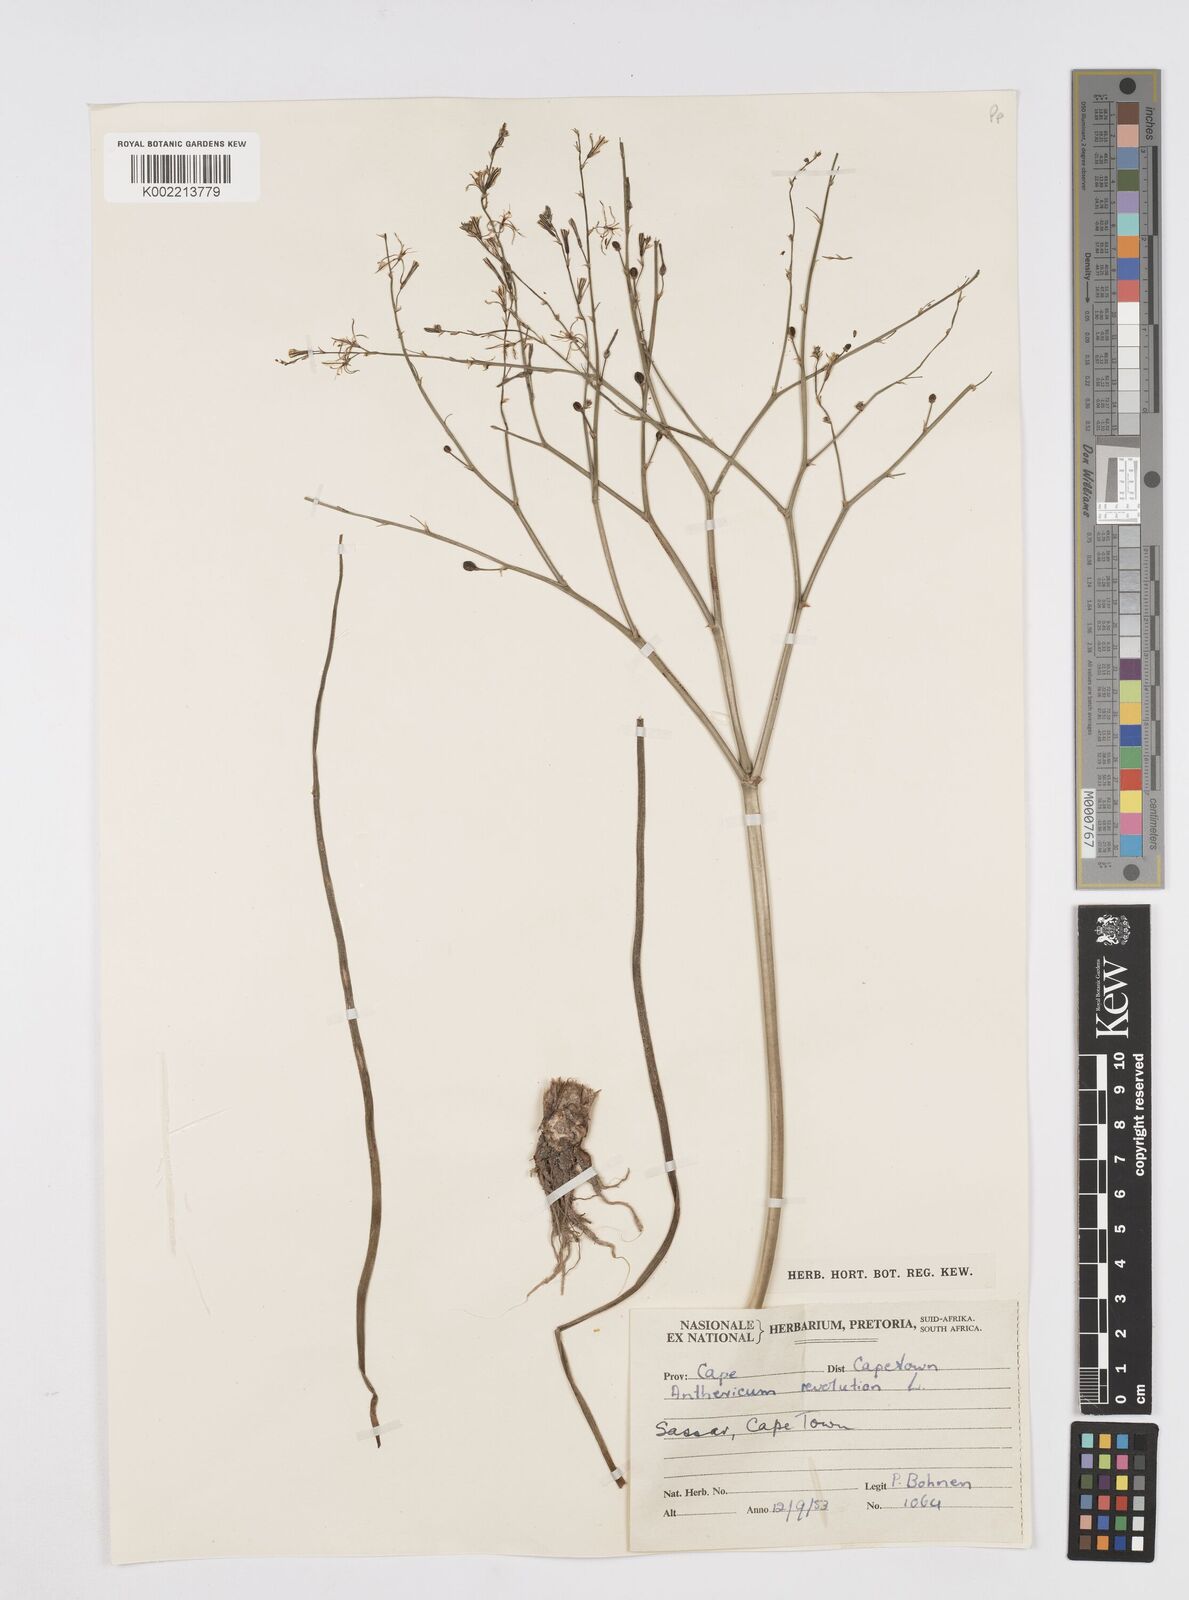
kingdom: Plantae
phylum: Tracheophyta
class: Liliopsida
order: Asparagales
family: Asphodelaceae
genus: Trachyandra
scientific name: Trachyandra revoluta
